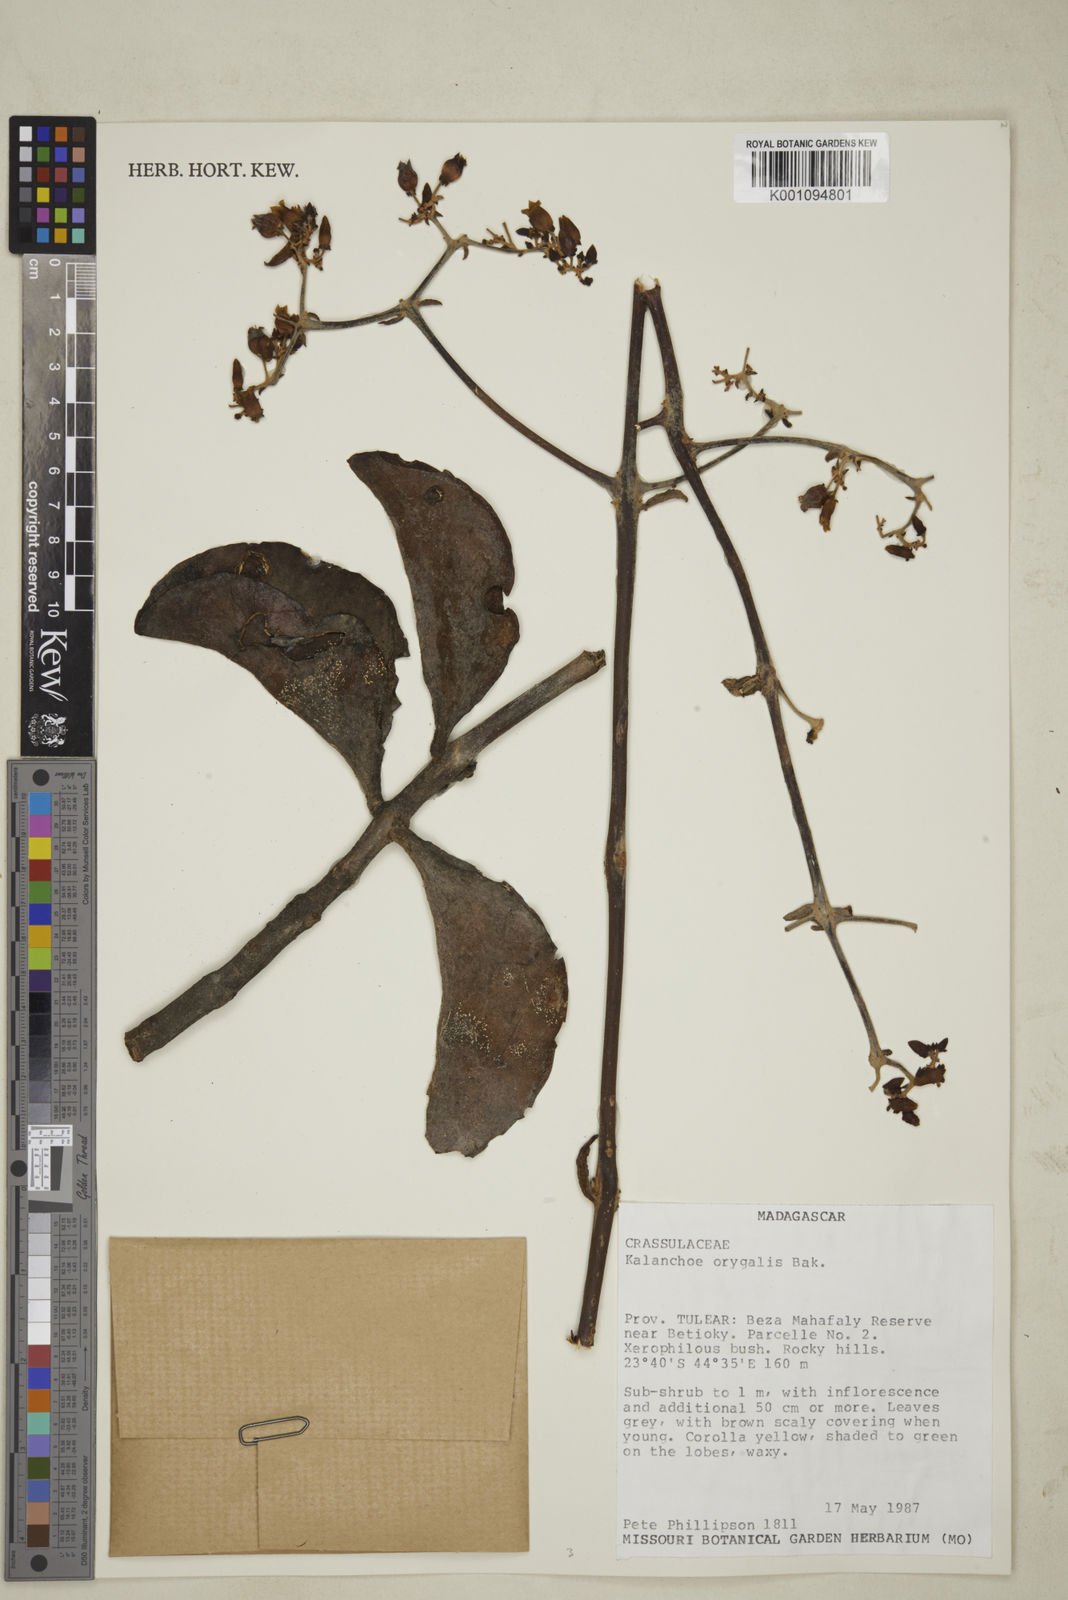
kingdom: Plantae
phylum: Tracheophyta
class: Magnoliopsida
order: Saxifragales
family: Crassulaceae
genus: Kalanchoe
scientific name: Kalanchoe
